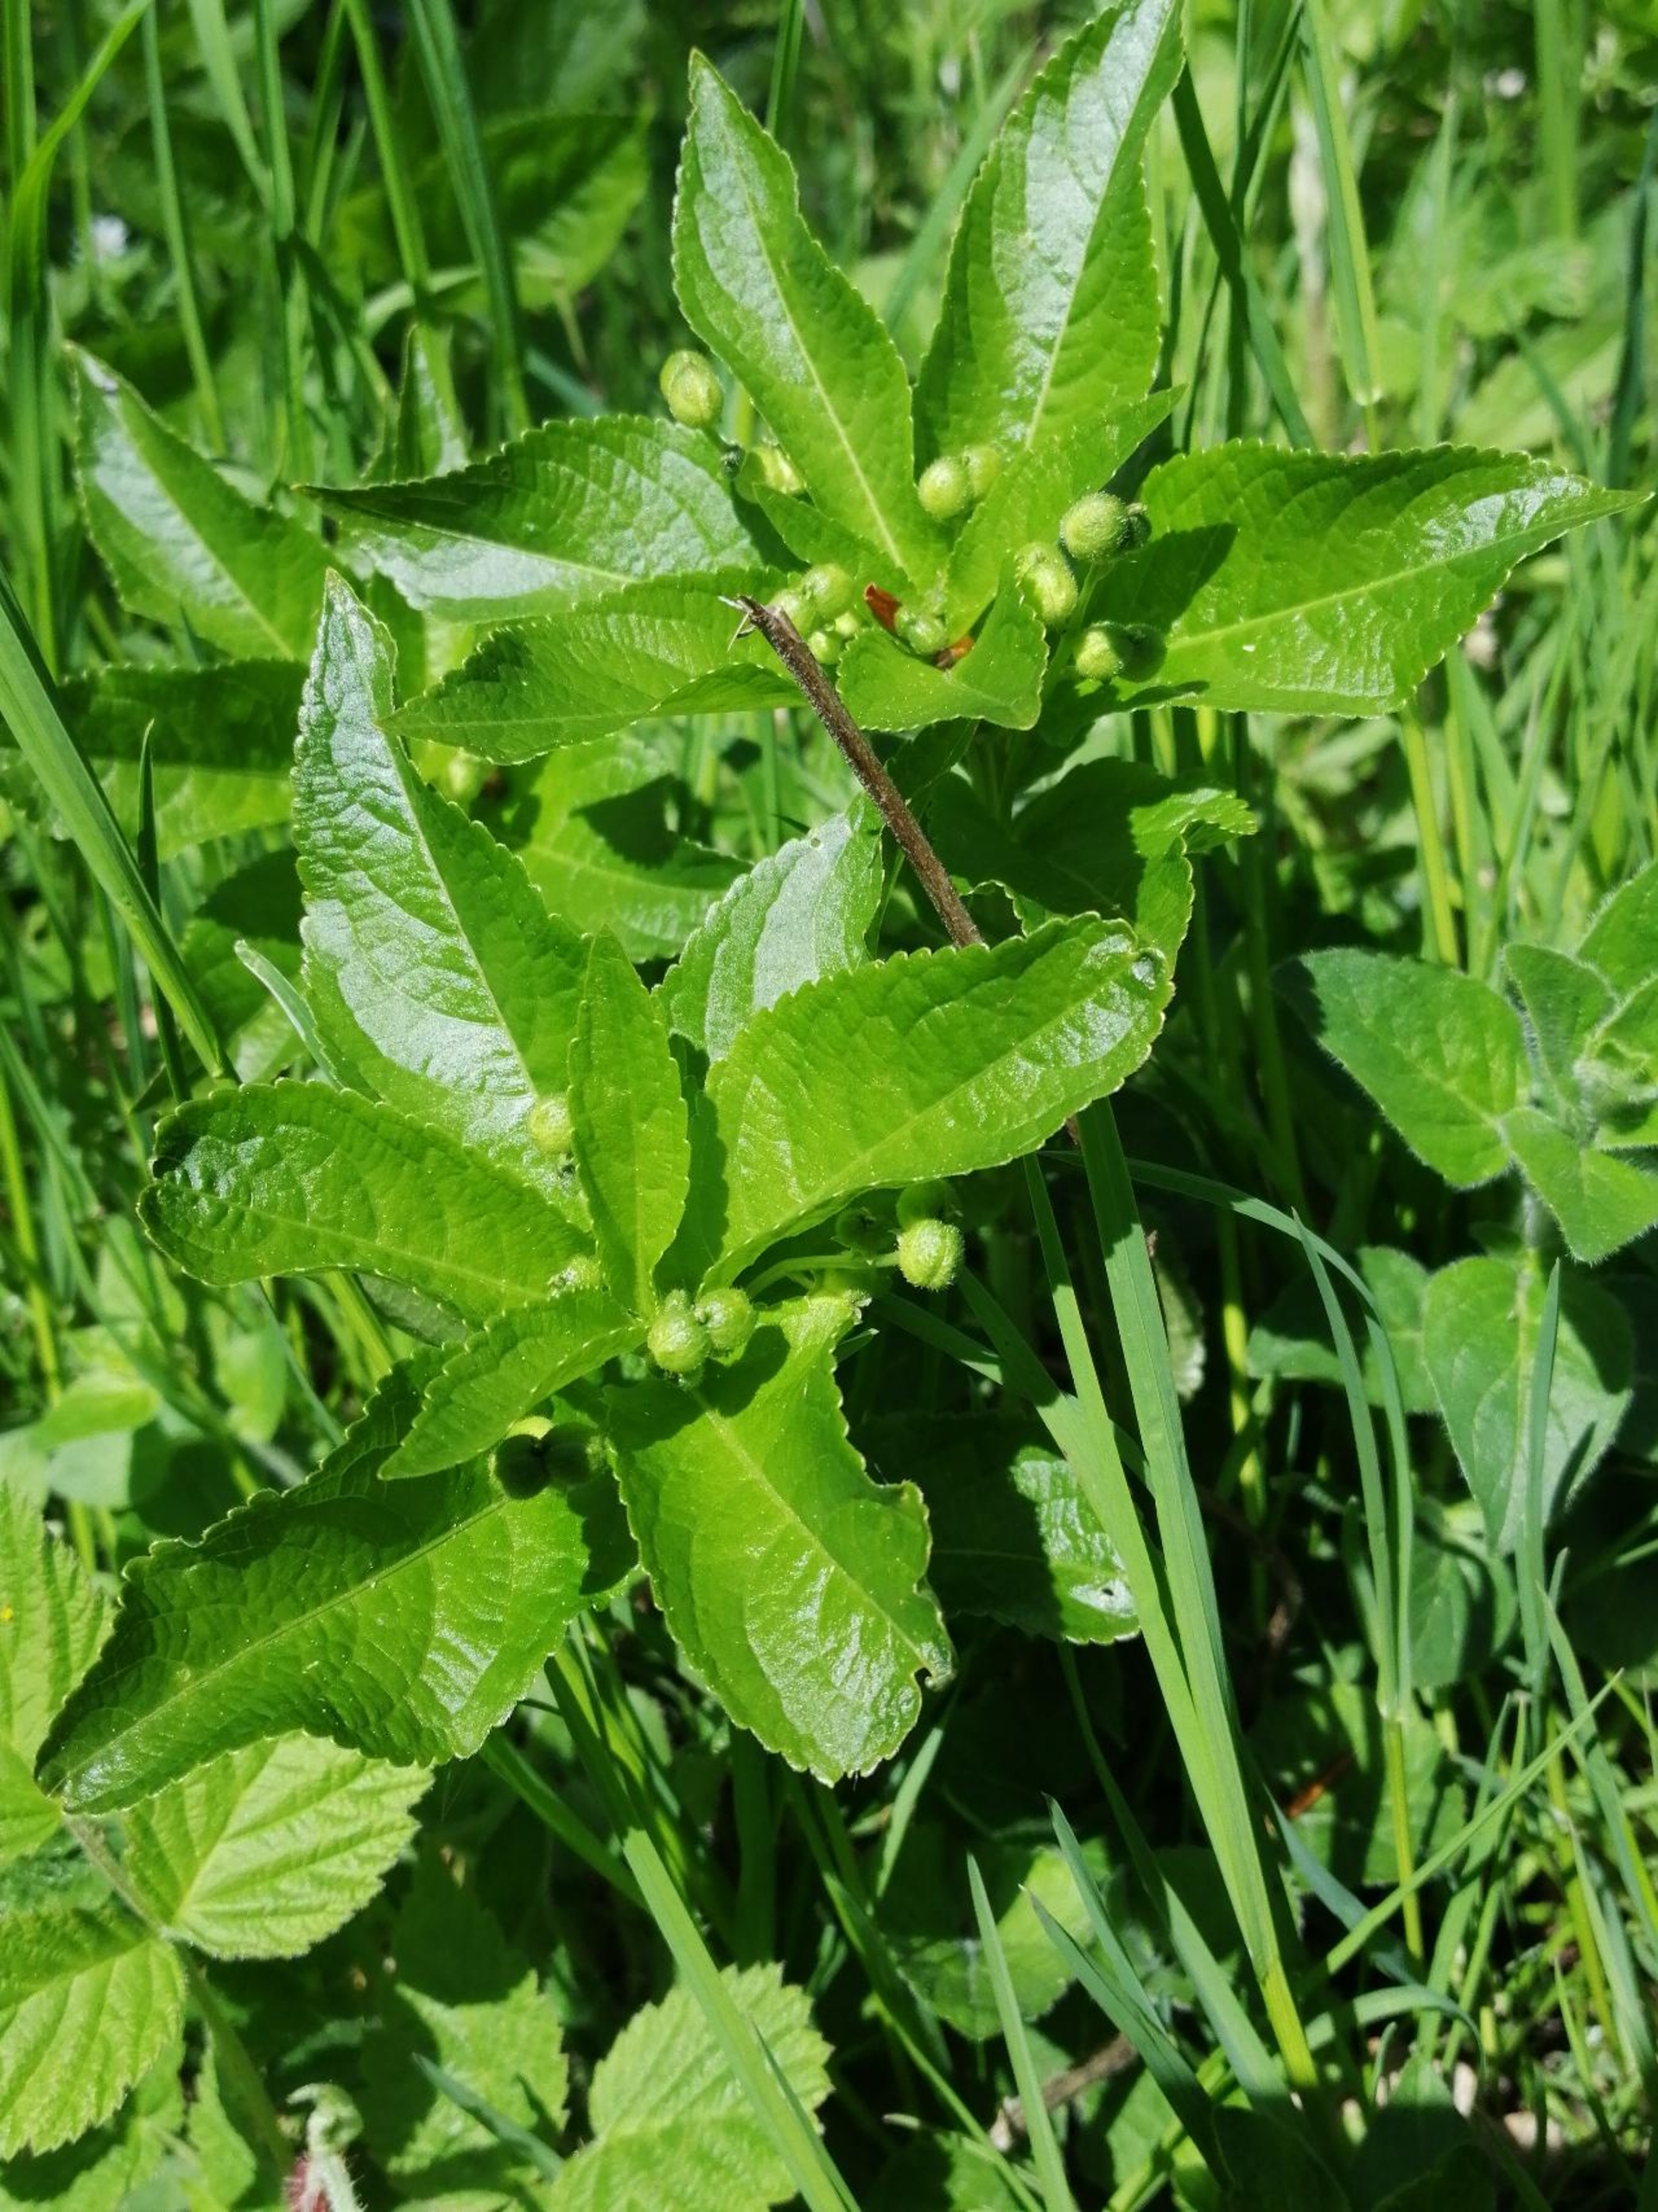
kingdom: Plantae
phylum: Tracheophyta
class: Magnoliopsida
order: Malpighiales
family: Euphorbiaceae
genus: Mercurialis
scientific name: Mercurialis perennis
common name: Almindelig bingelurt
